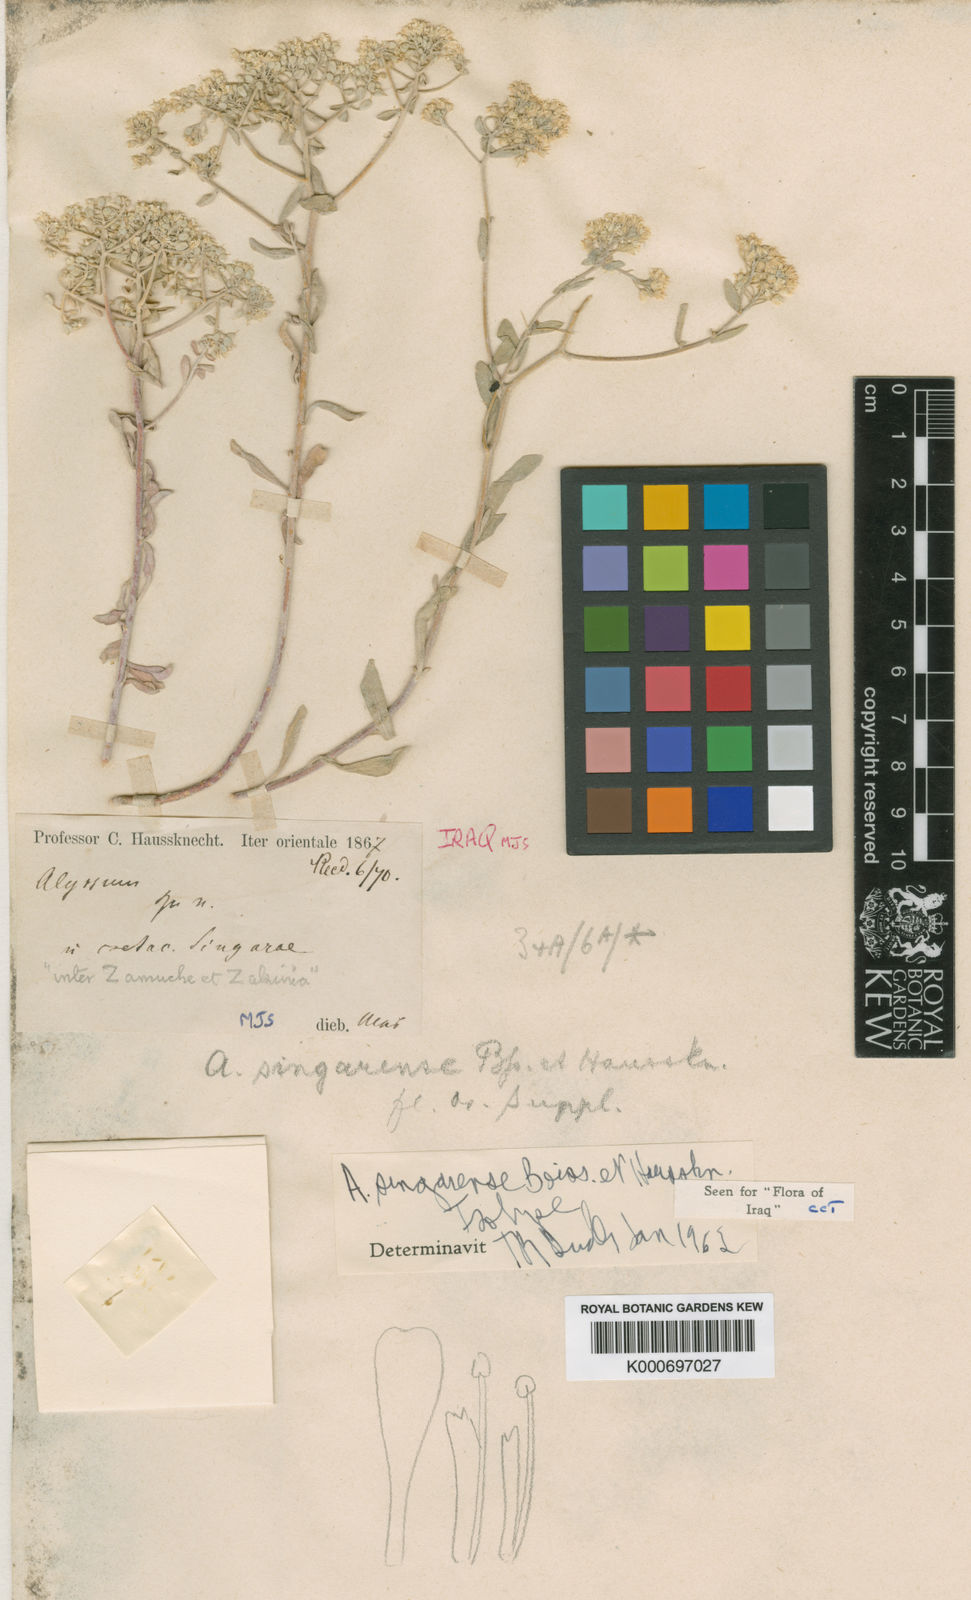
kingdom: Plantae
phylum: Tracheophyta
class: Magnoliopsida
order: Brassicales
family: Brassicaceae
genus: Odontarrhena
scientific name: Odontarrhena singarensis
